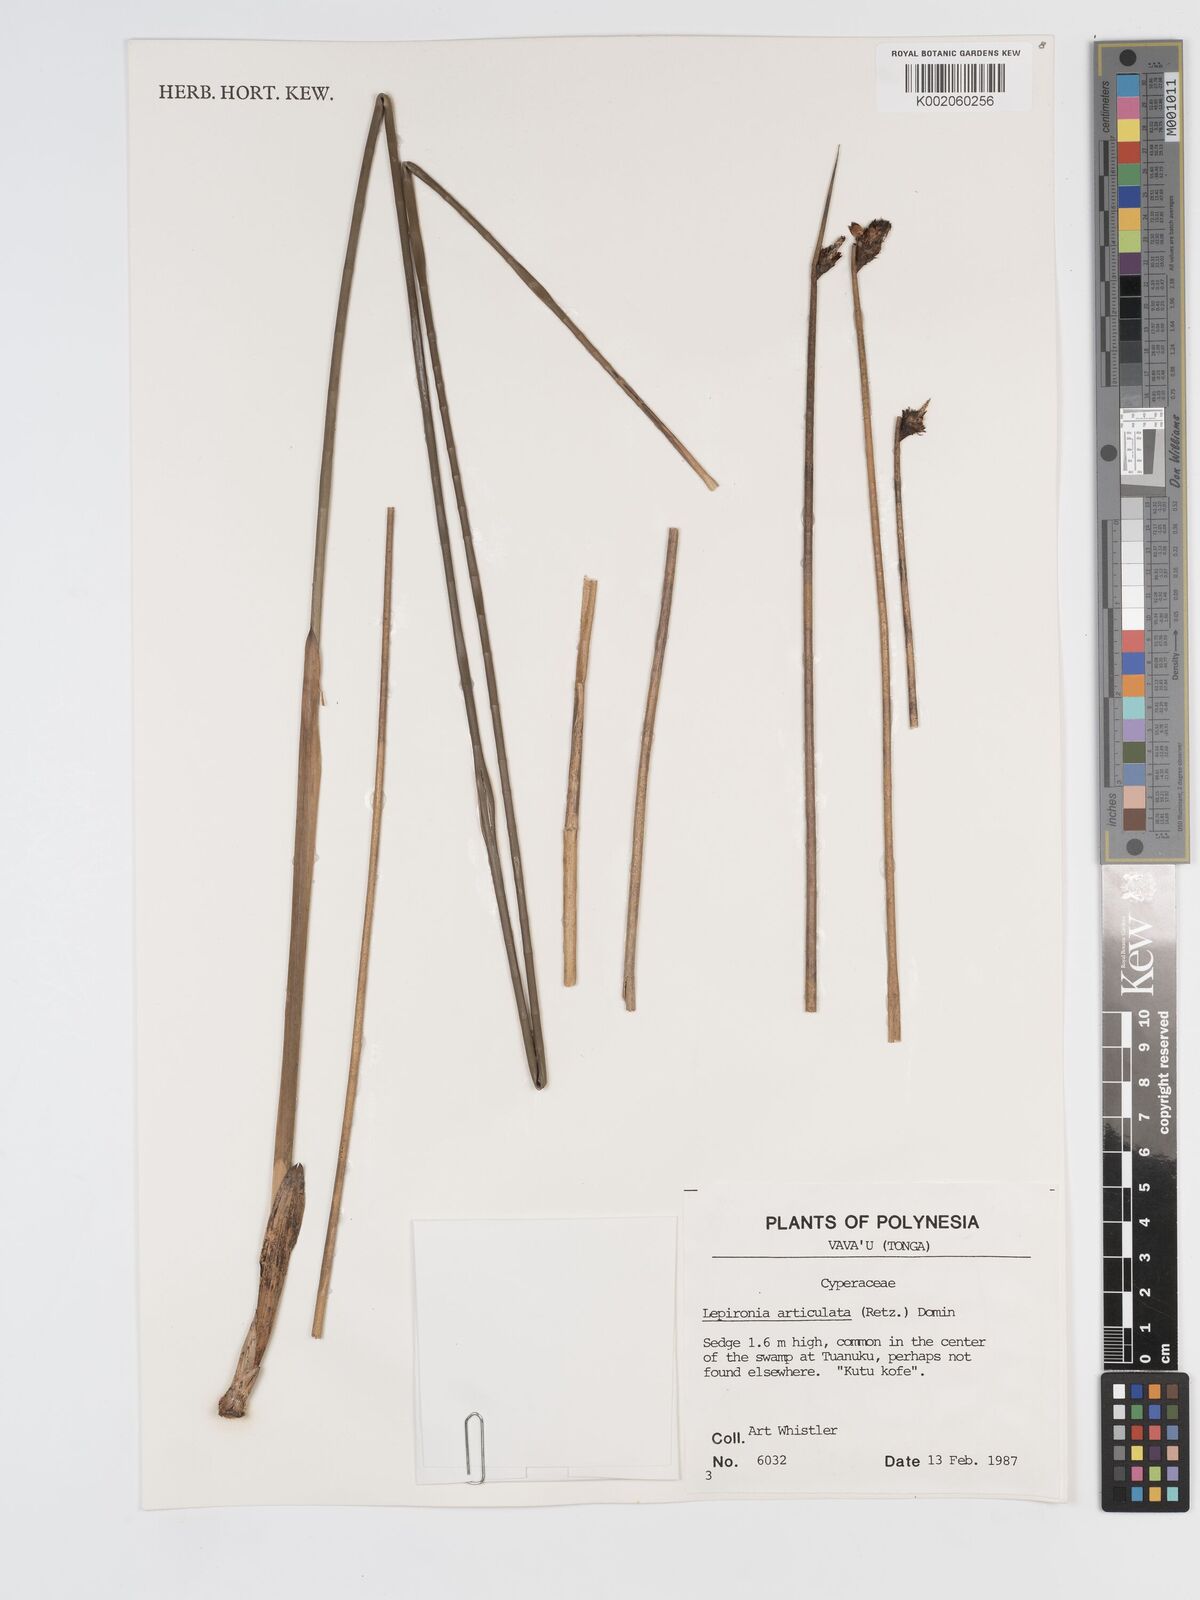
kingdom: Plantae
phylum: Tracheophyta
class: Liliopsida
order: Poales
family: Cyperaceae
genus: Lepironia
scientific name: Lepironia articulata
